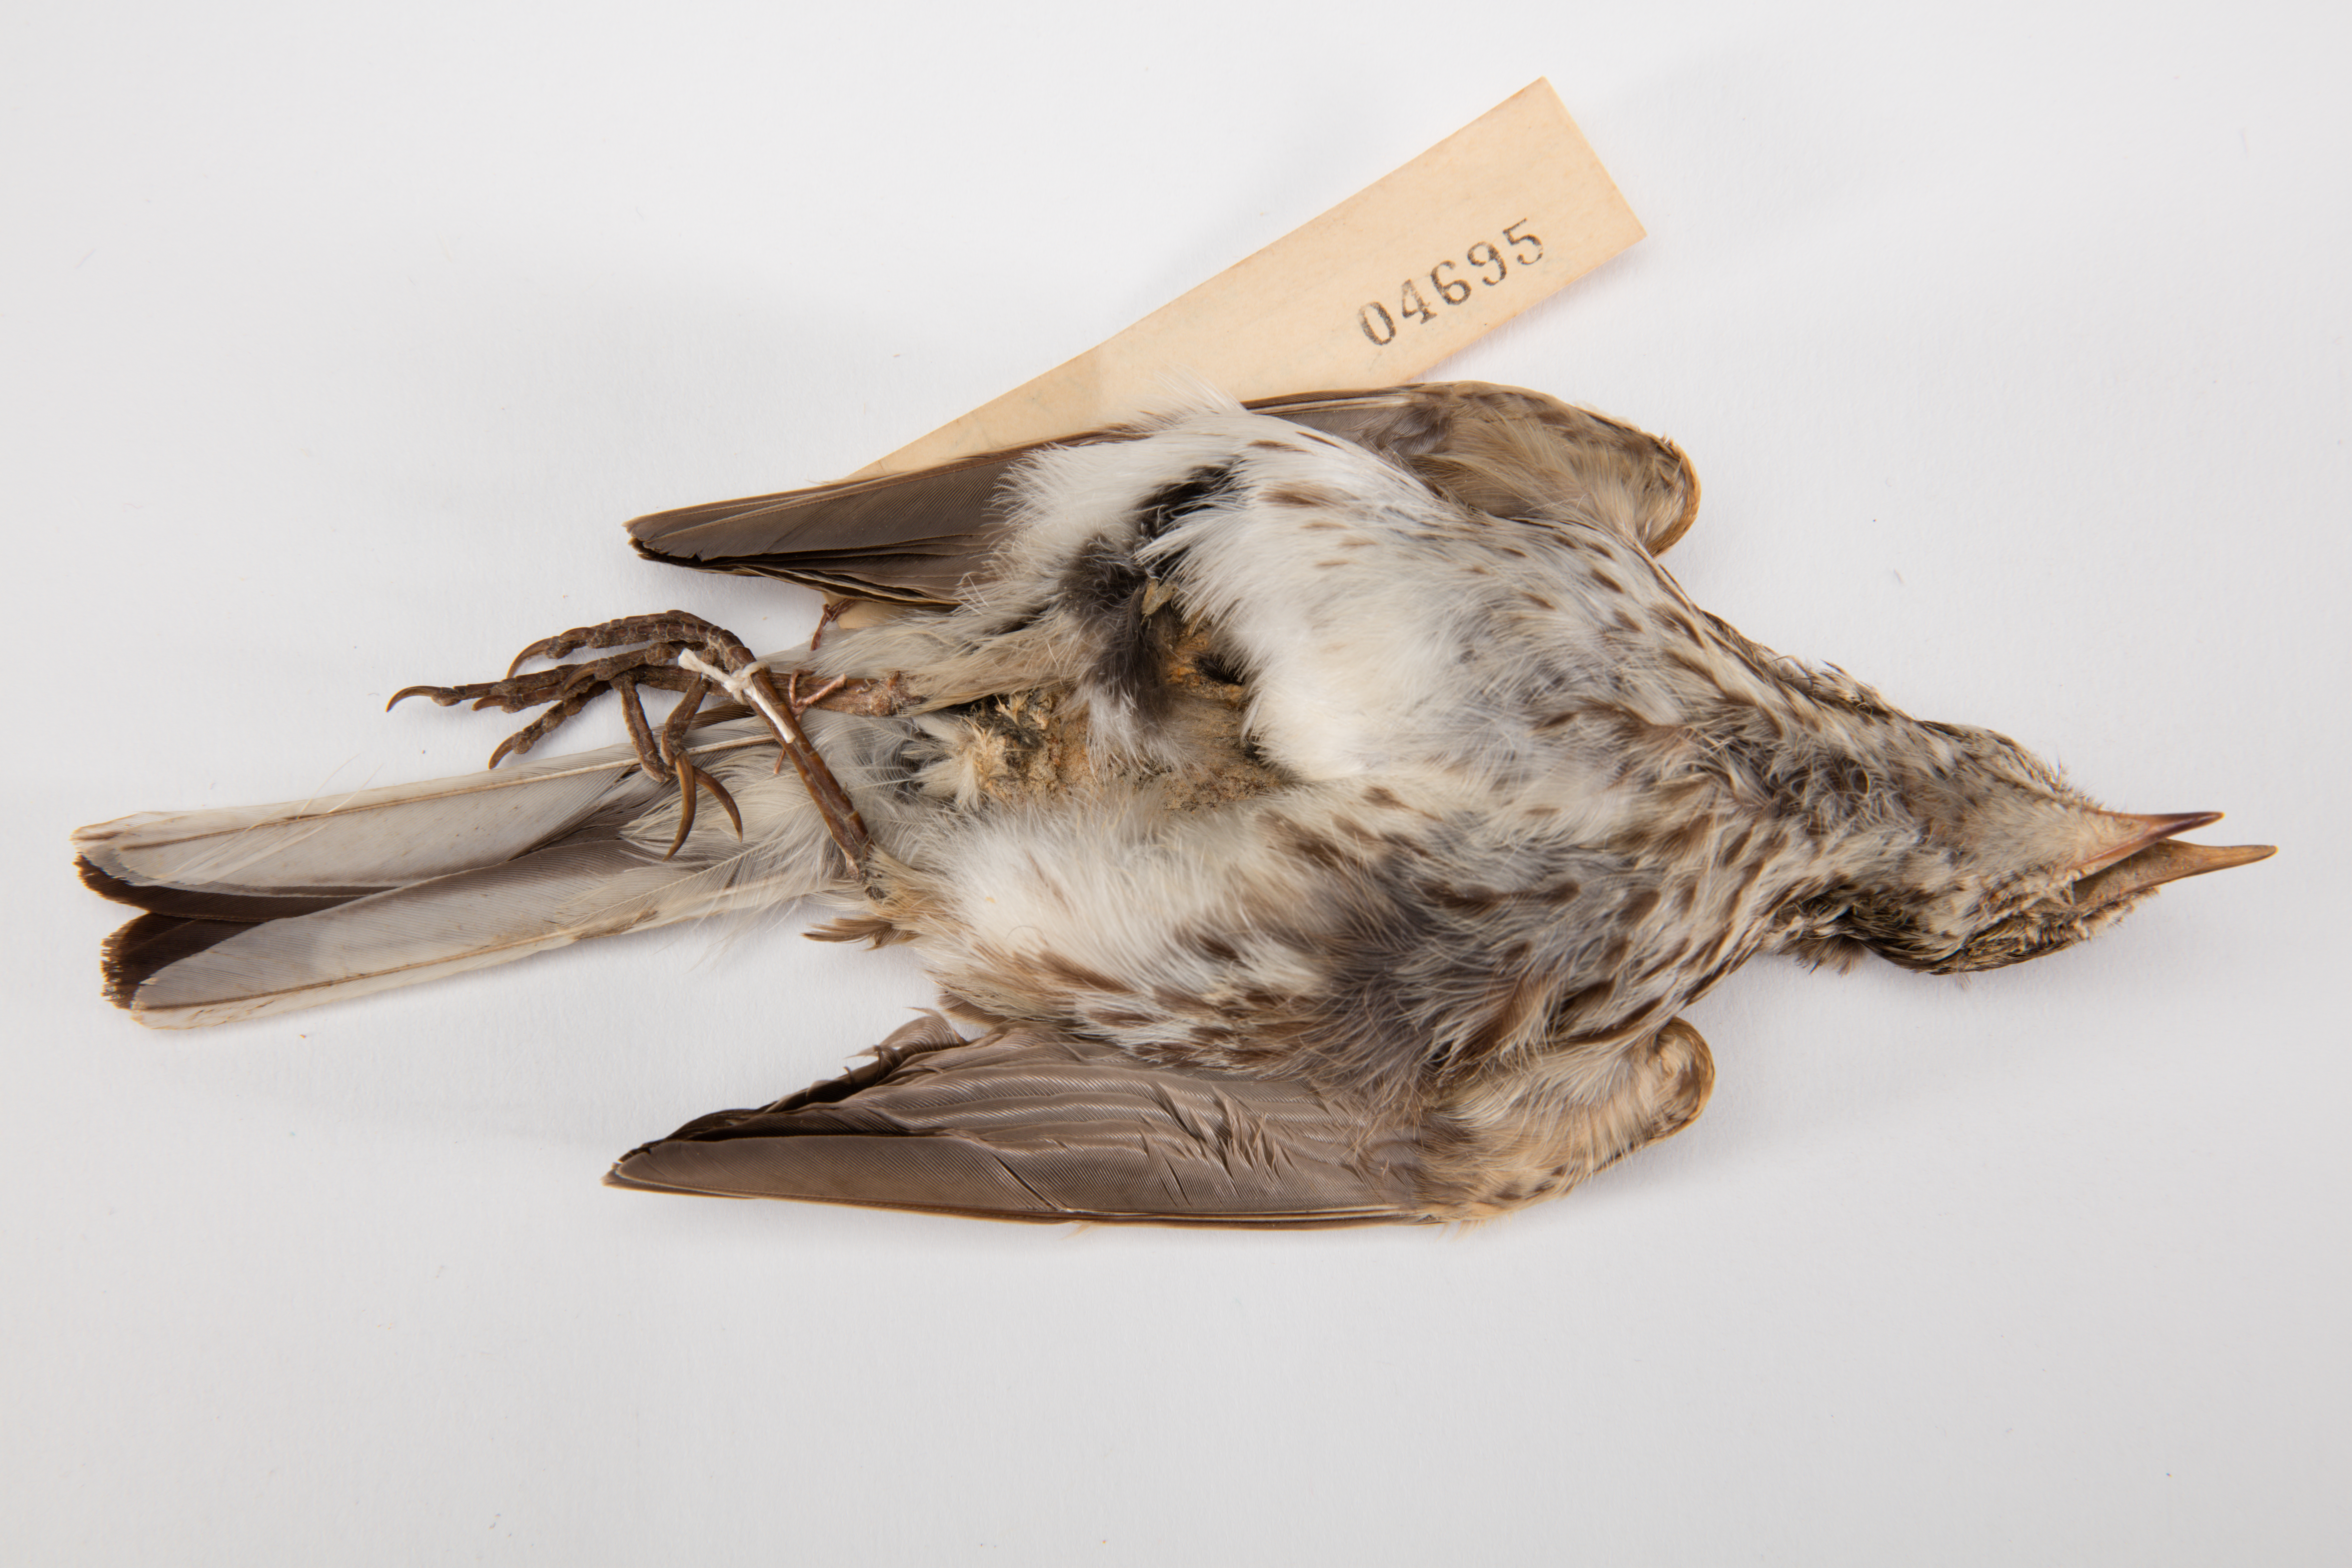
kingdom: Animalia
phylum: Chordata
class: Aves
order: Passeriformes
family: Motacillidae
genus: Anthus
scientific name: Anthus novaeseelandiae
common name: New zealand pipit
